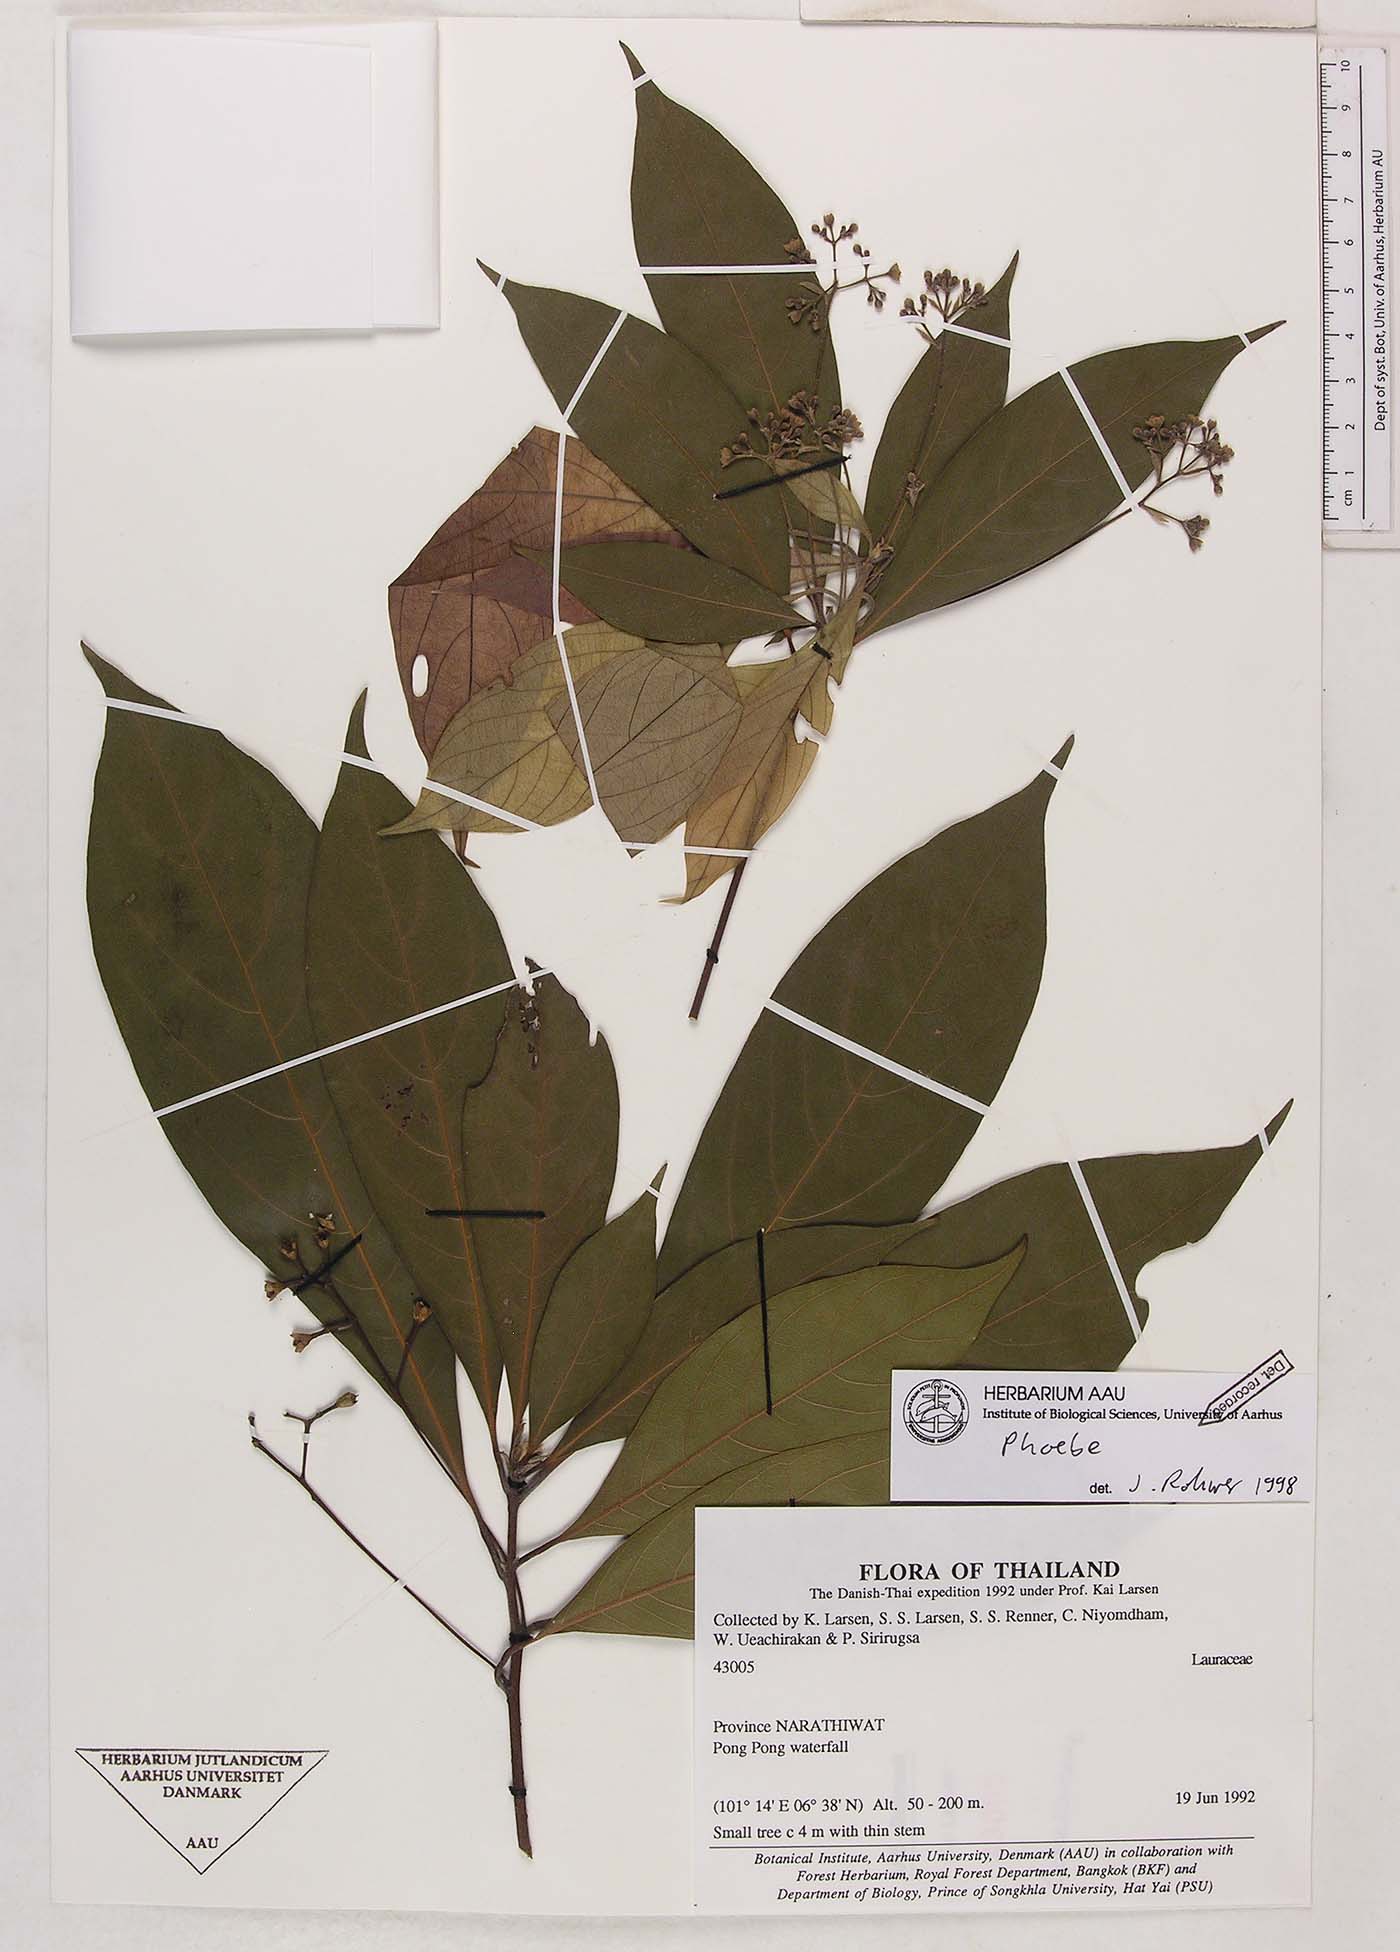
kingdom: Plantae
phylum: Tracheophyta
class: Magnoliopsida
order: Laurales
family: Lauraceae
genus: Phoebe
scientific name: Phoebe
